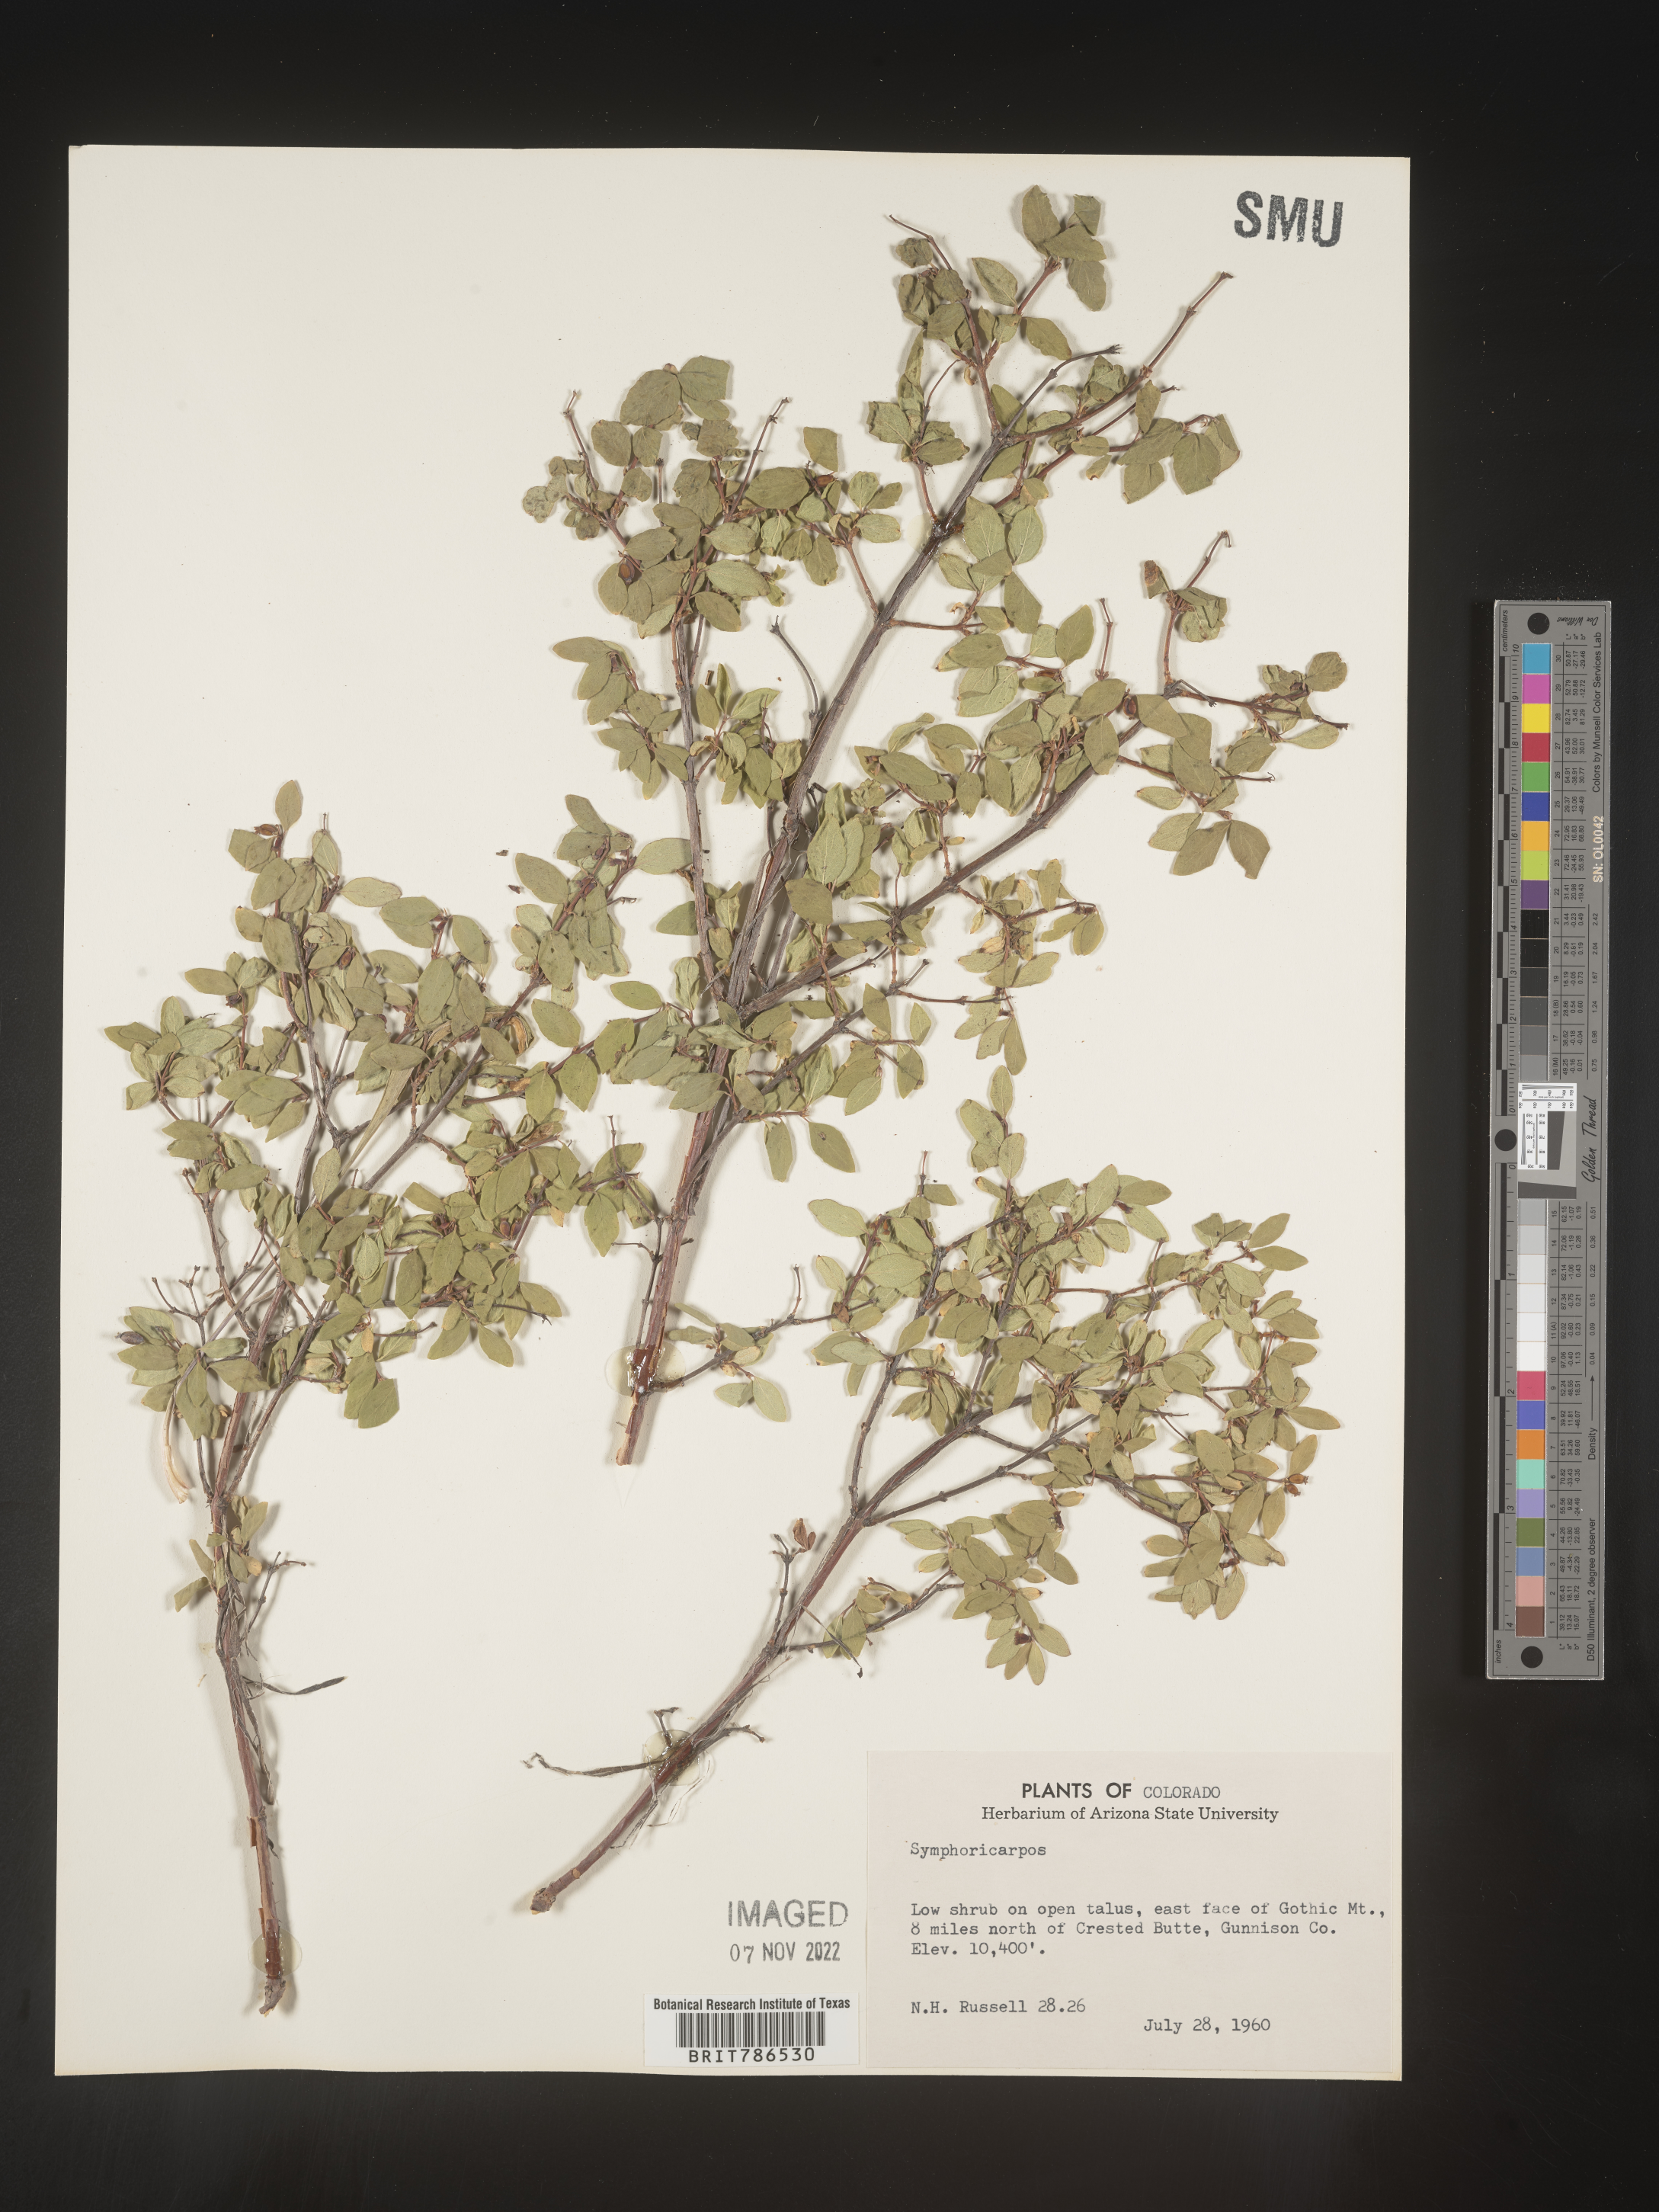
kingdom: Plantae
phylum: Tracheophyta
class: Magnoliopsida
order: Dipsacales
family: Caprifoliaceae
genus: Symphoricarpos
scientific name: Symphoricarpos
